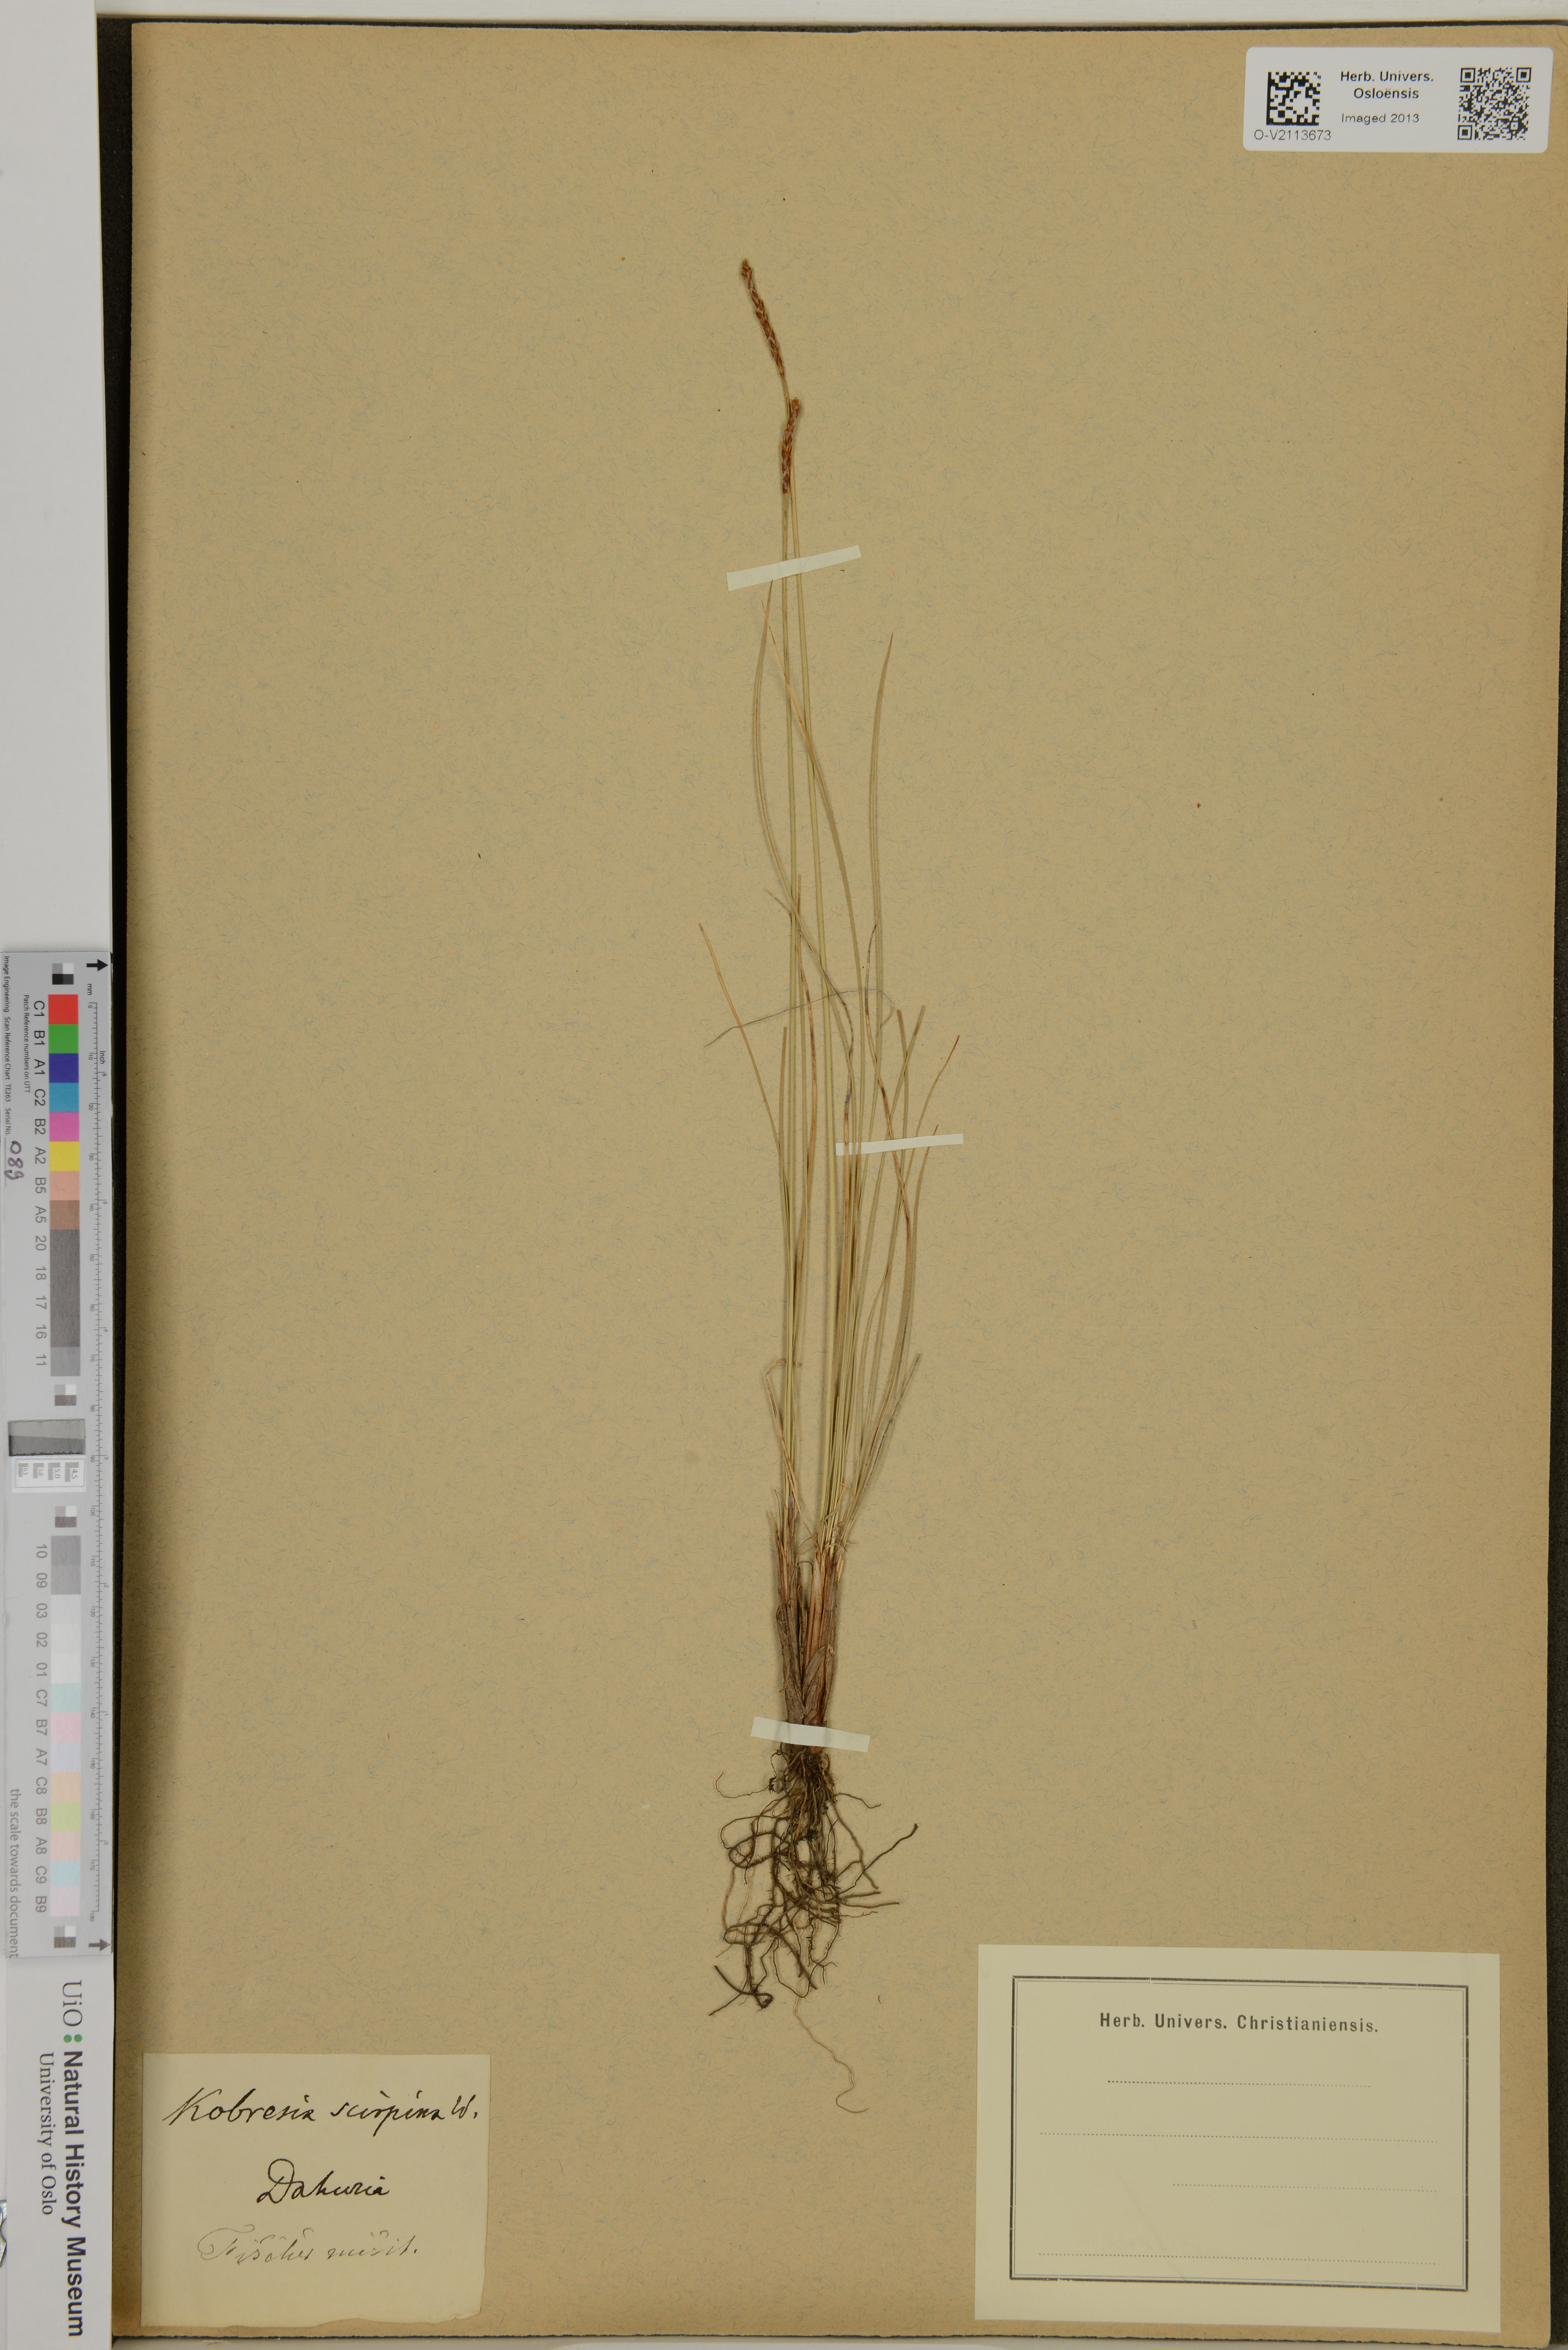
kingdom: Plantae
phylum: Tracheophyta
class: Liliopsida
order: Poales
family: Cyperaceae
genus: Carex
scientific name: Carex myosuroides
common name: Bellard's bog sedge
